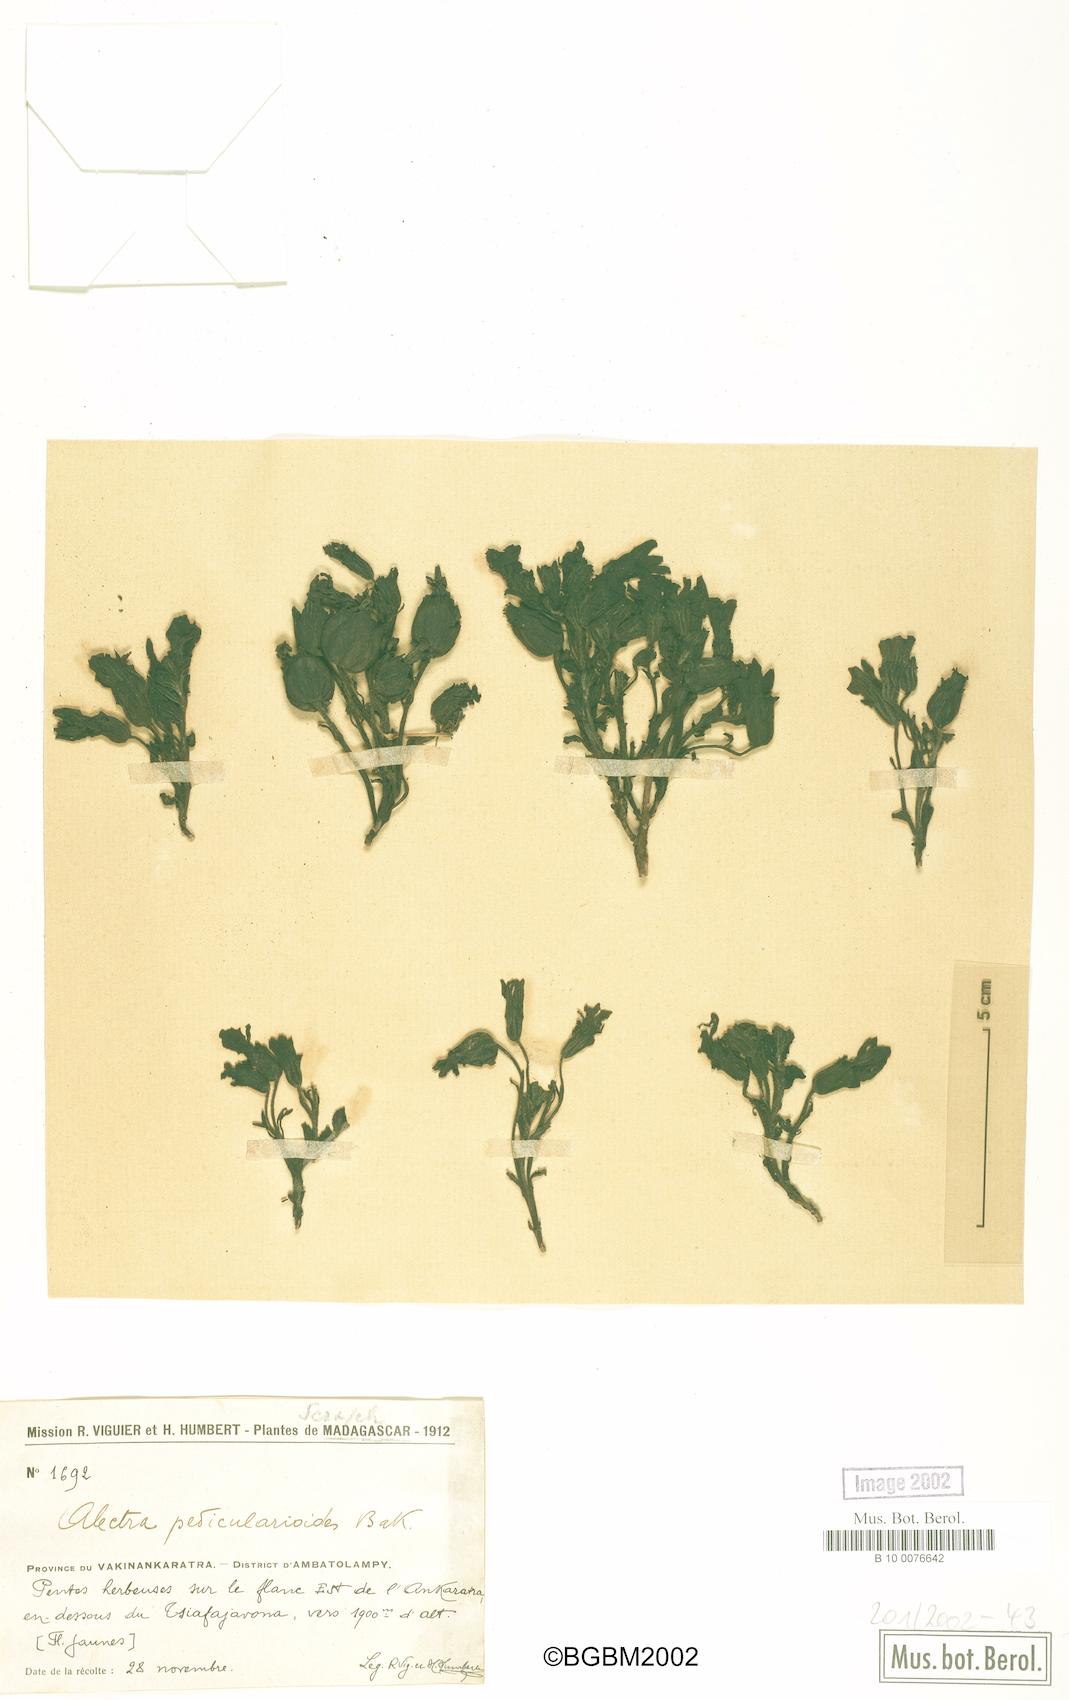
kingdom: Plantae
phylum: Tracheophyta
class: Magnoliopsida
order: Lamiales
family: Orobanchaceae
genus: Pseudomelasma
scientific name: Pseudomelasma pedicularioides
